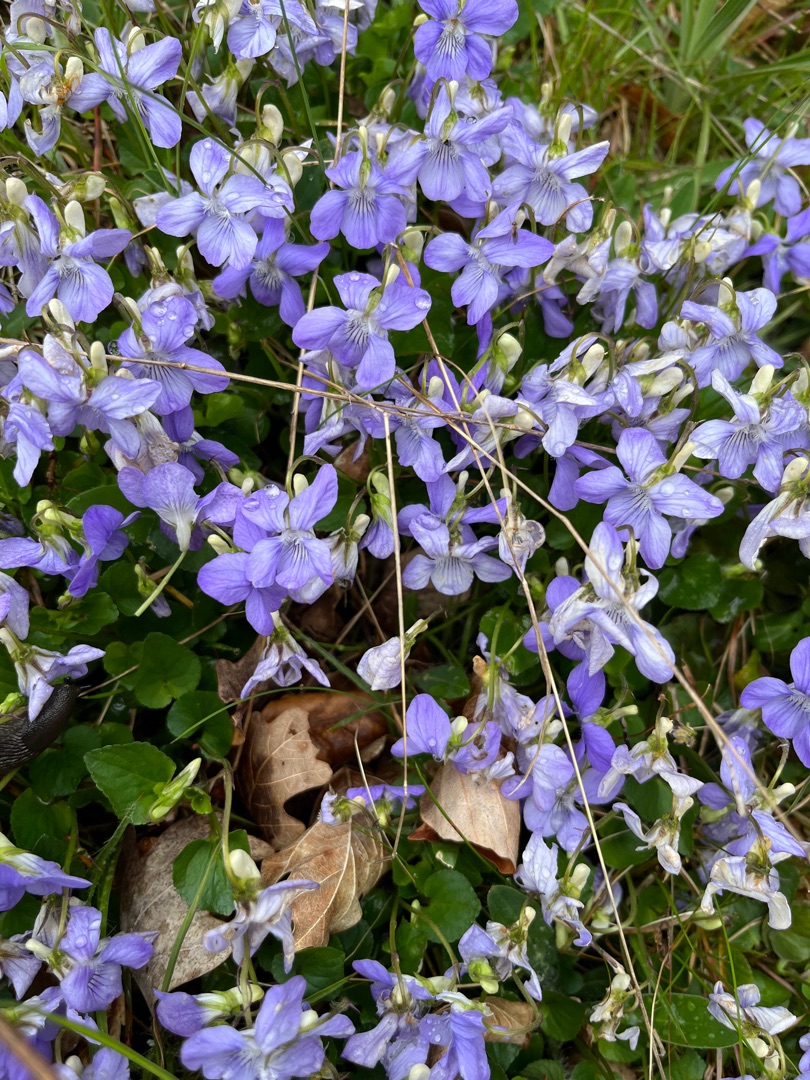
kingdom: Plantae
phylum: Tracheophyta
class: Magnoliopsida
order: Malpighiales
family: Violaceae
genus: Viola
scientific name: Viola riviniana
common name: Krat-viol
